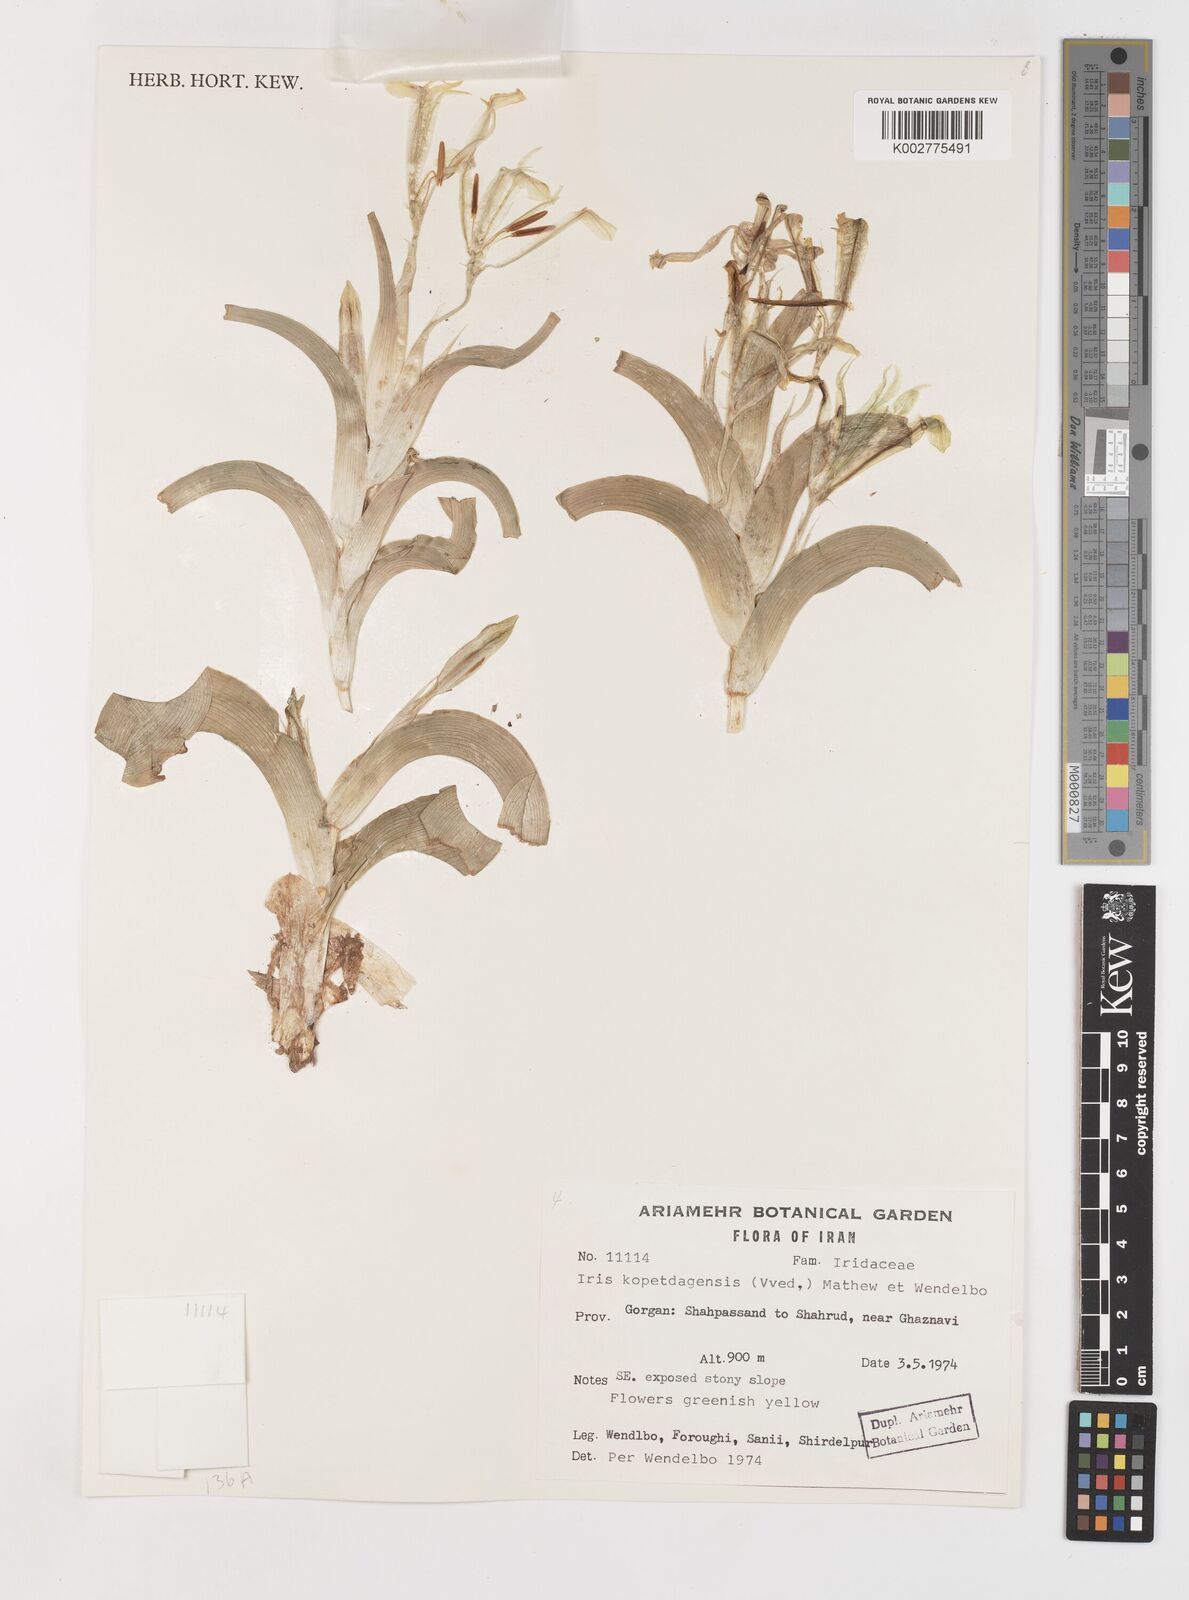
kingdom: Plantae
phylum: Tracheophyta
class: Liliopsida
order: Asparagales
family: Iridaceae
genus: Iris
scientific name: Iris kopetdagensis
